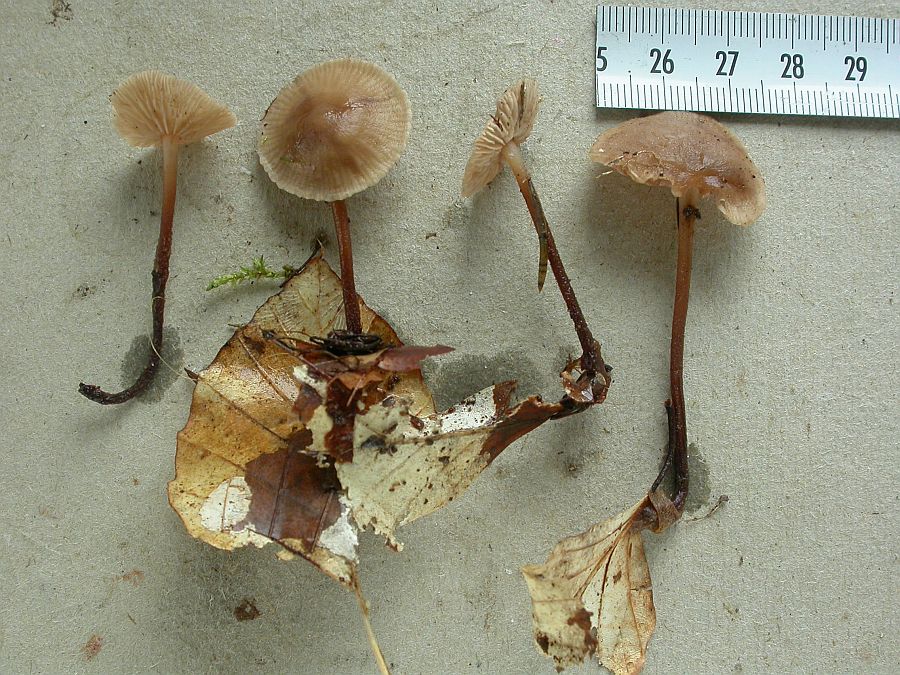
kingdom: Fungi
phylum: Basidiomycota
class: Agaricomycetes
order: Agaricales
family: Omphalotaceae
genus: Mycetinis
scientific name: Mycetinis querceus
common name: ege-løghat
